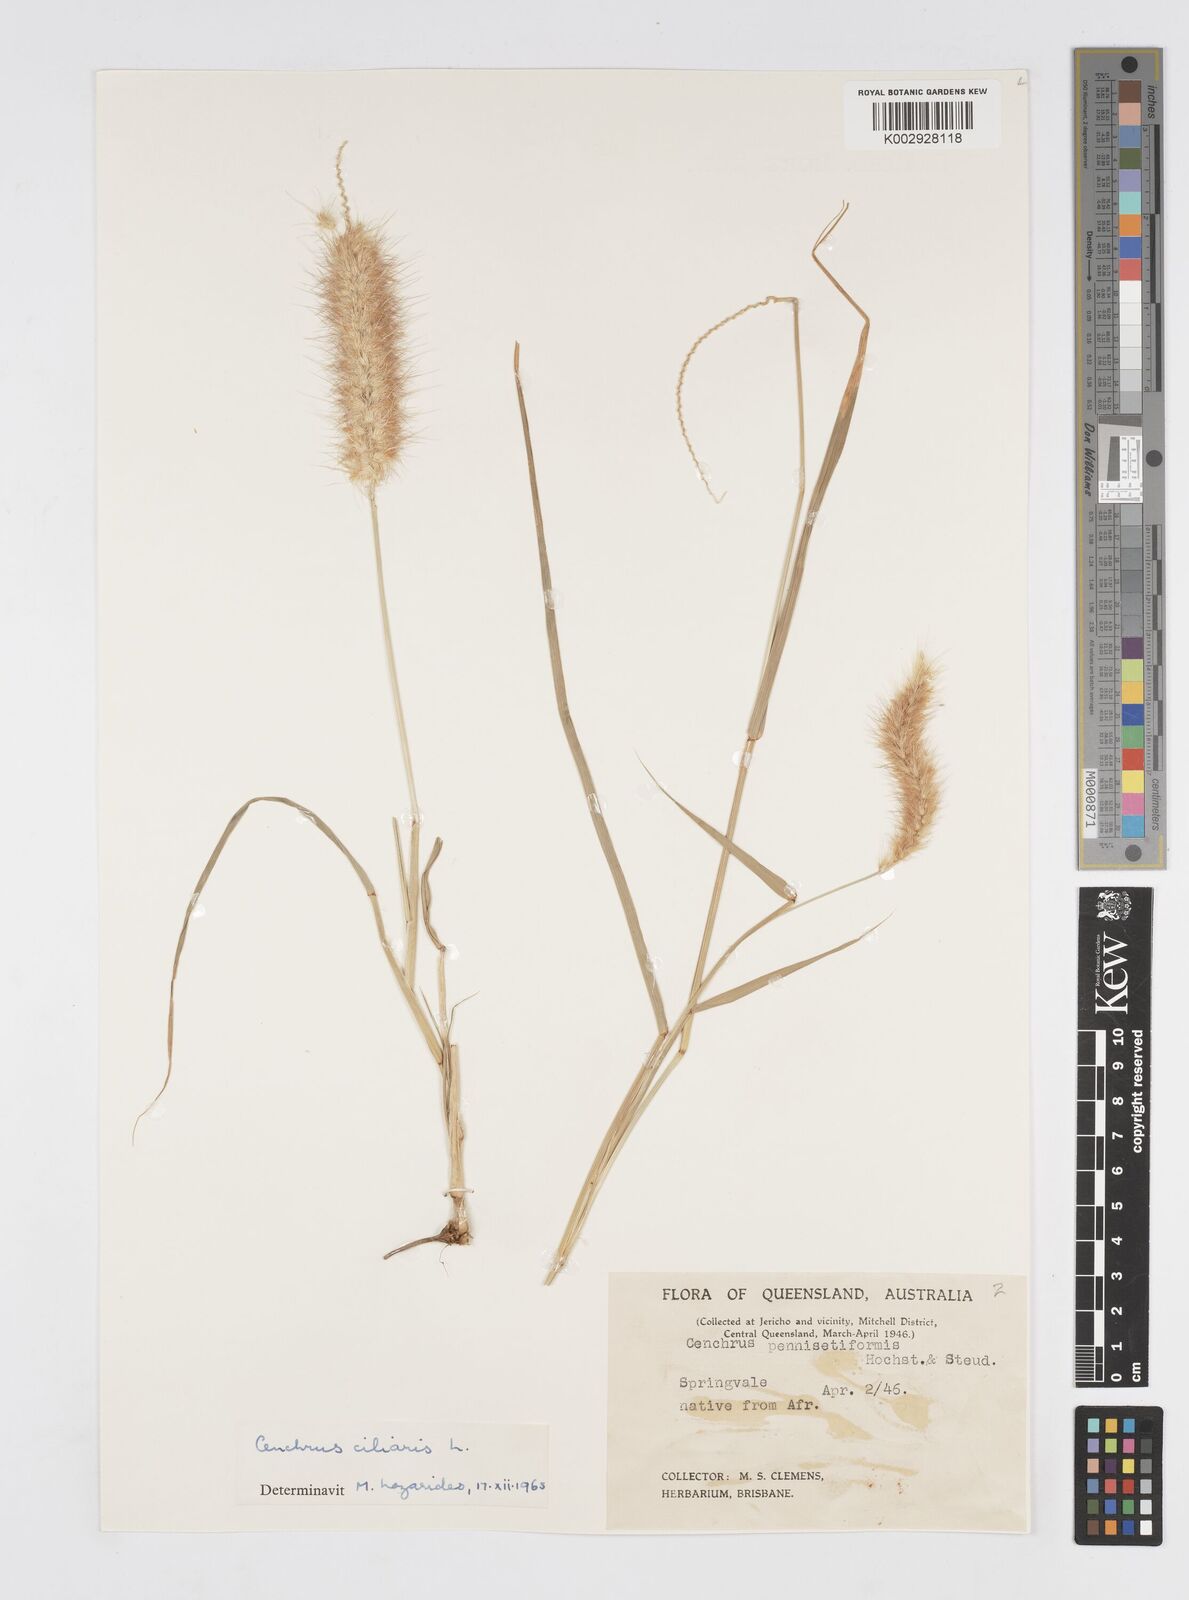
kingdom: Plantae
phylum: Tracheophyta
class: Liliopsida
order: Poales
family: Poaceae
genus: Cenchrus
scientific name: Cenchrus ciliaris
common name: Buffelgrass
